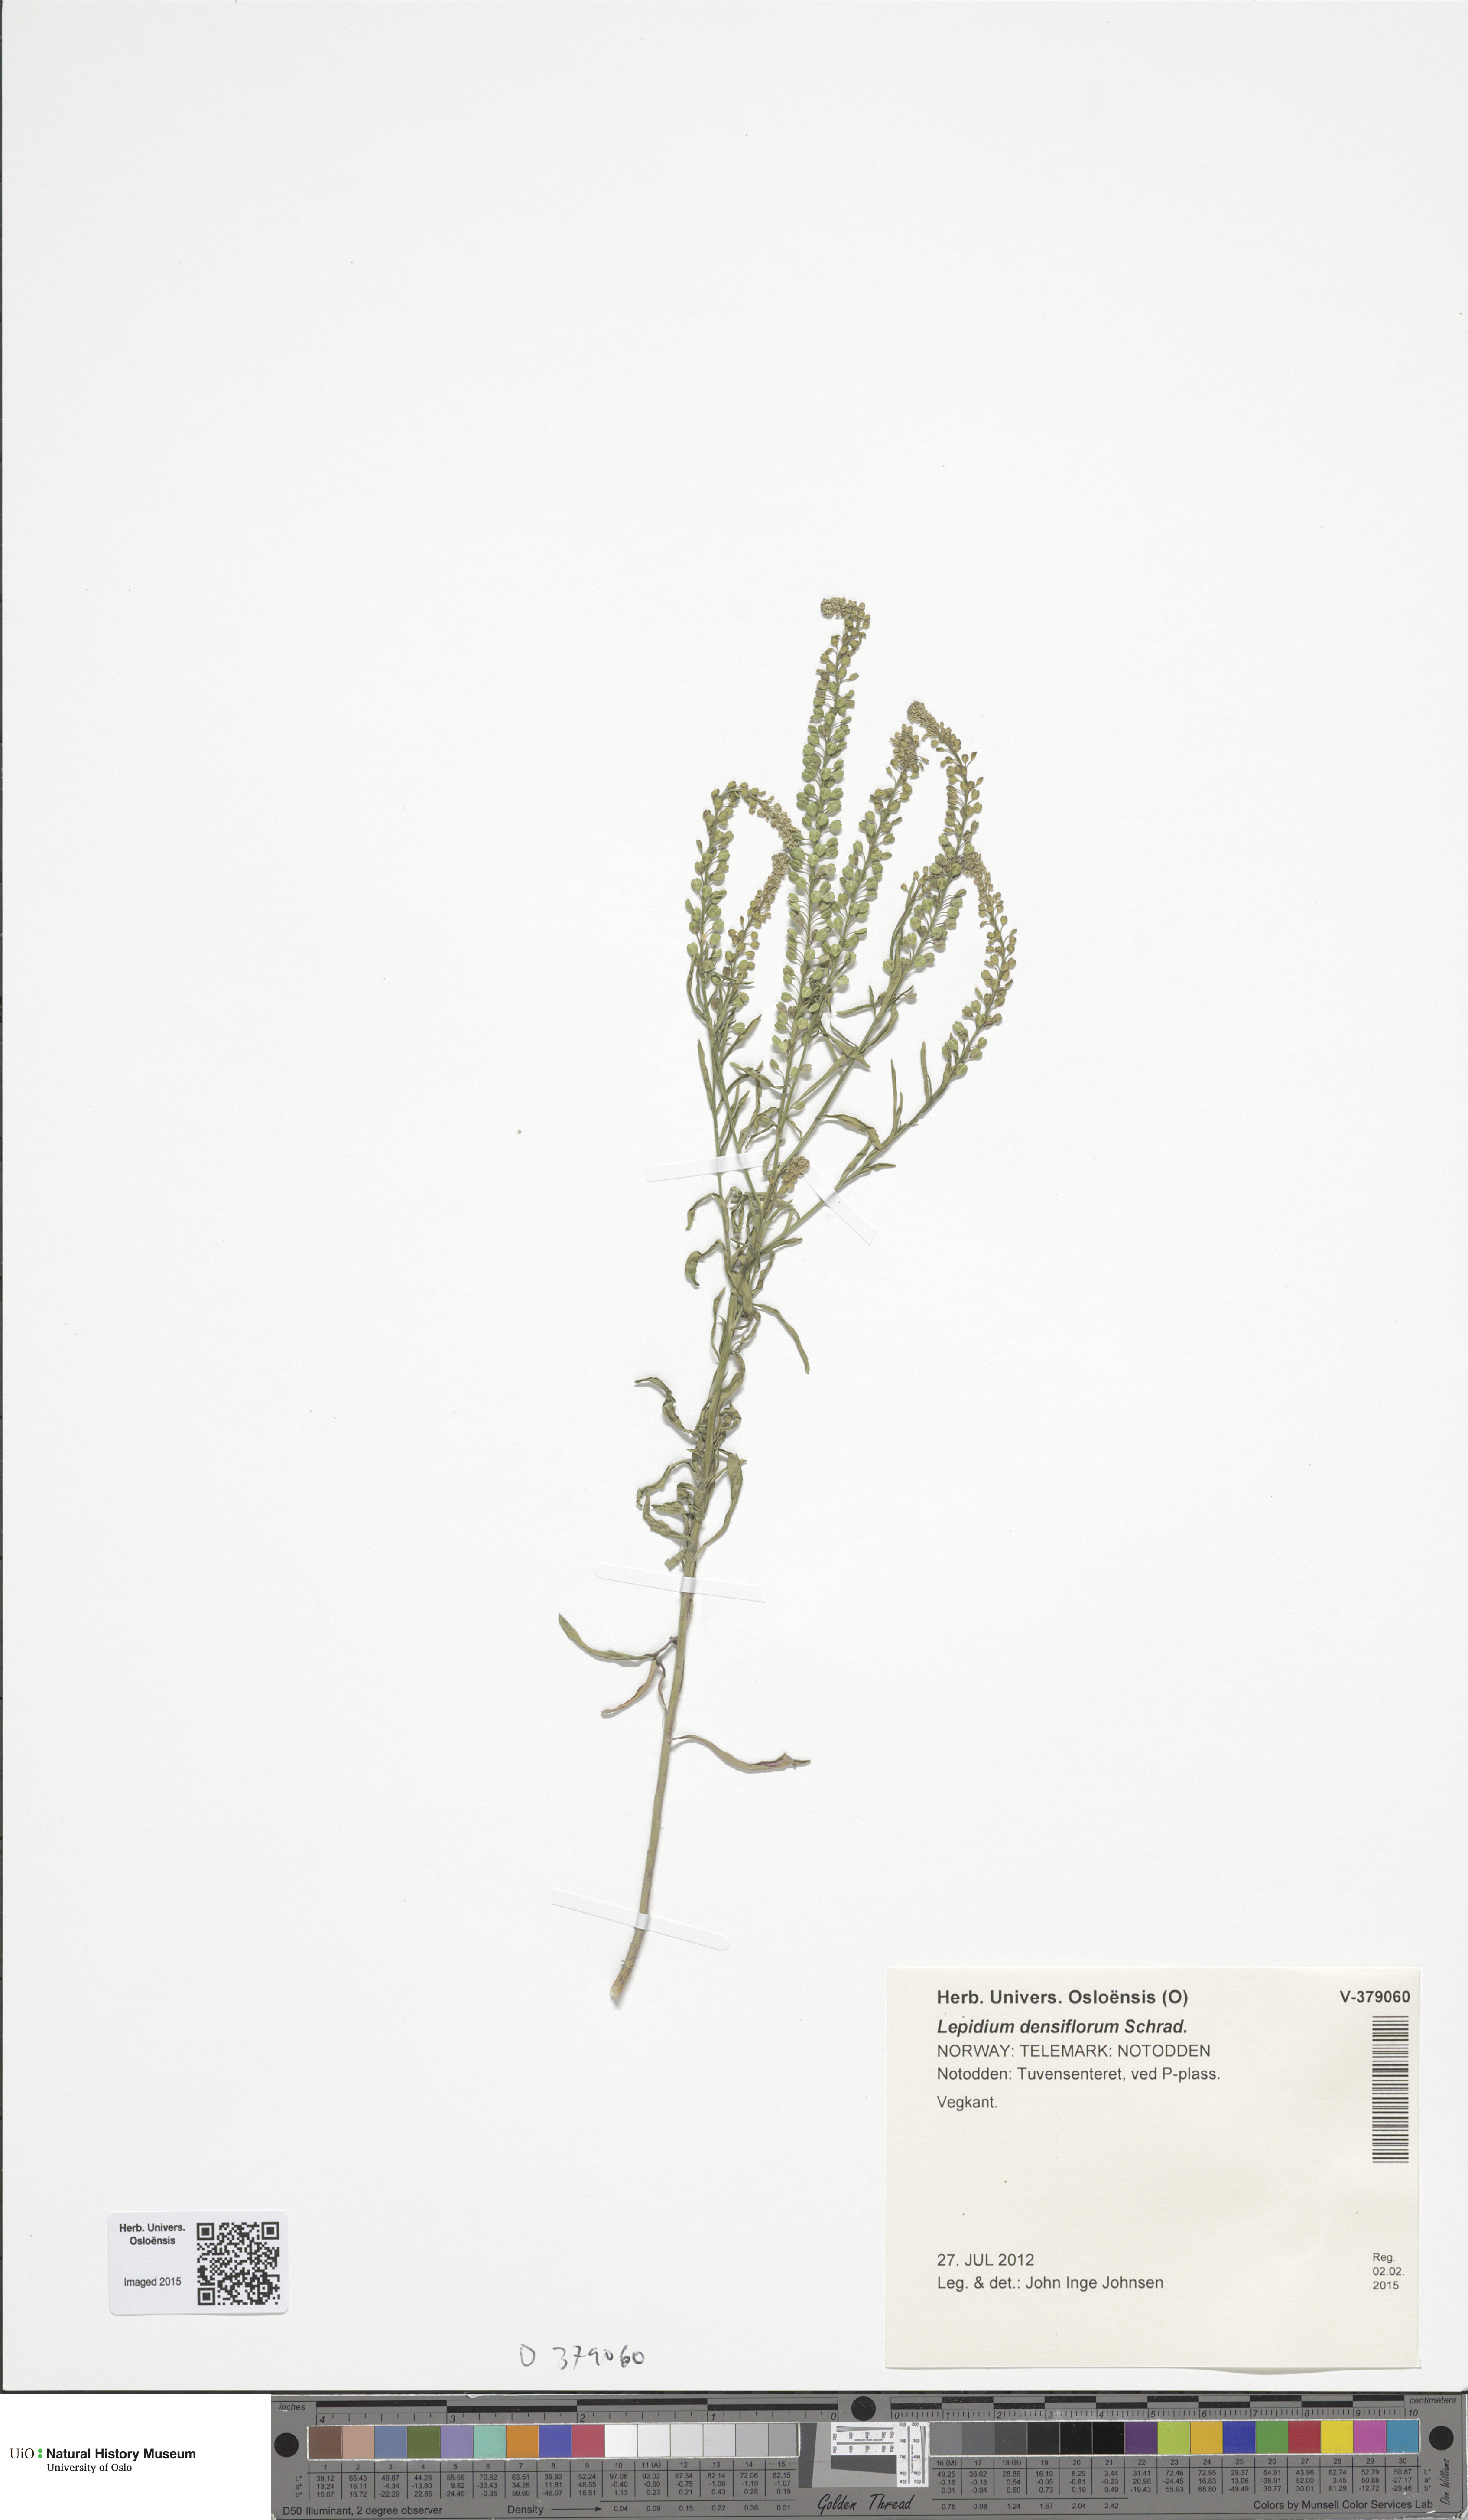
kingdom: Plantae
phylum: Tracheophyta
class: Magnoliopsida
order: Brassicales
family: Brassicaceae
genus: Lepidium
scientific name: Lepidium densiflorum
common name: Miner's pepperwort
